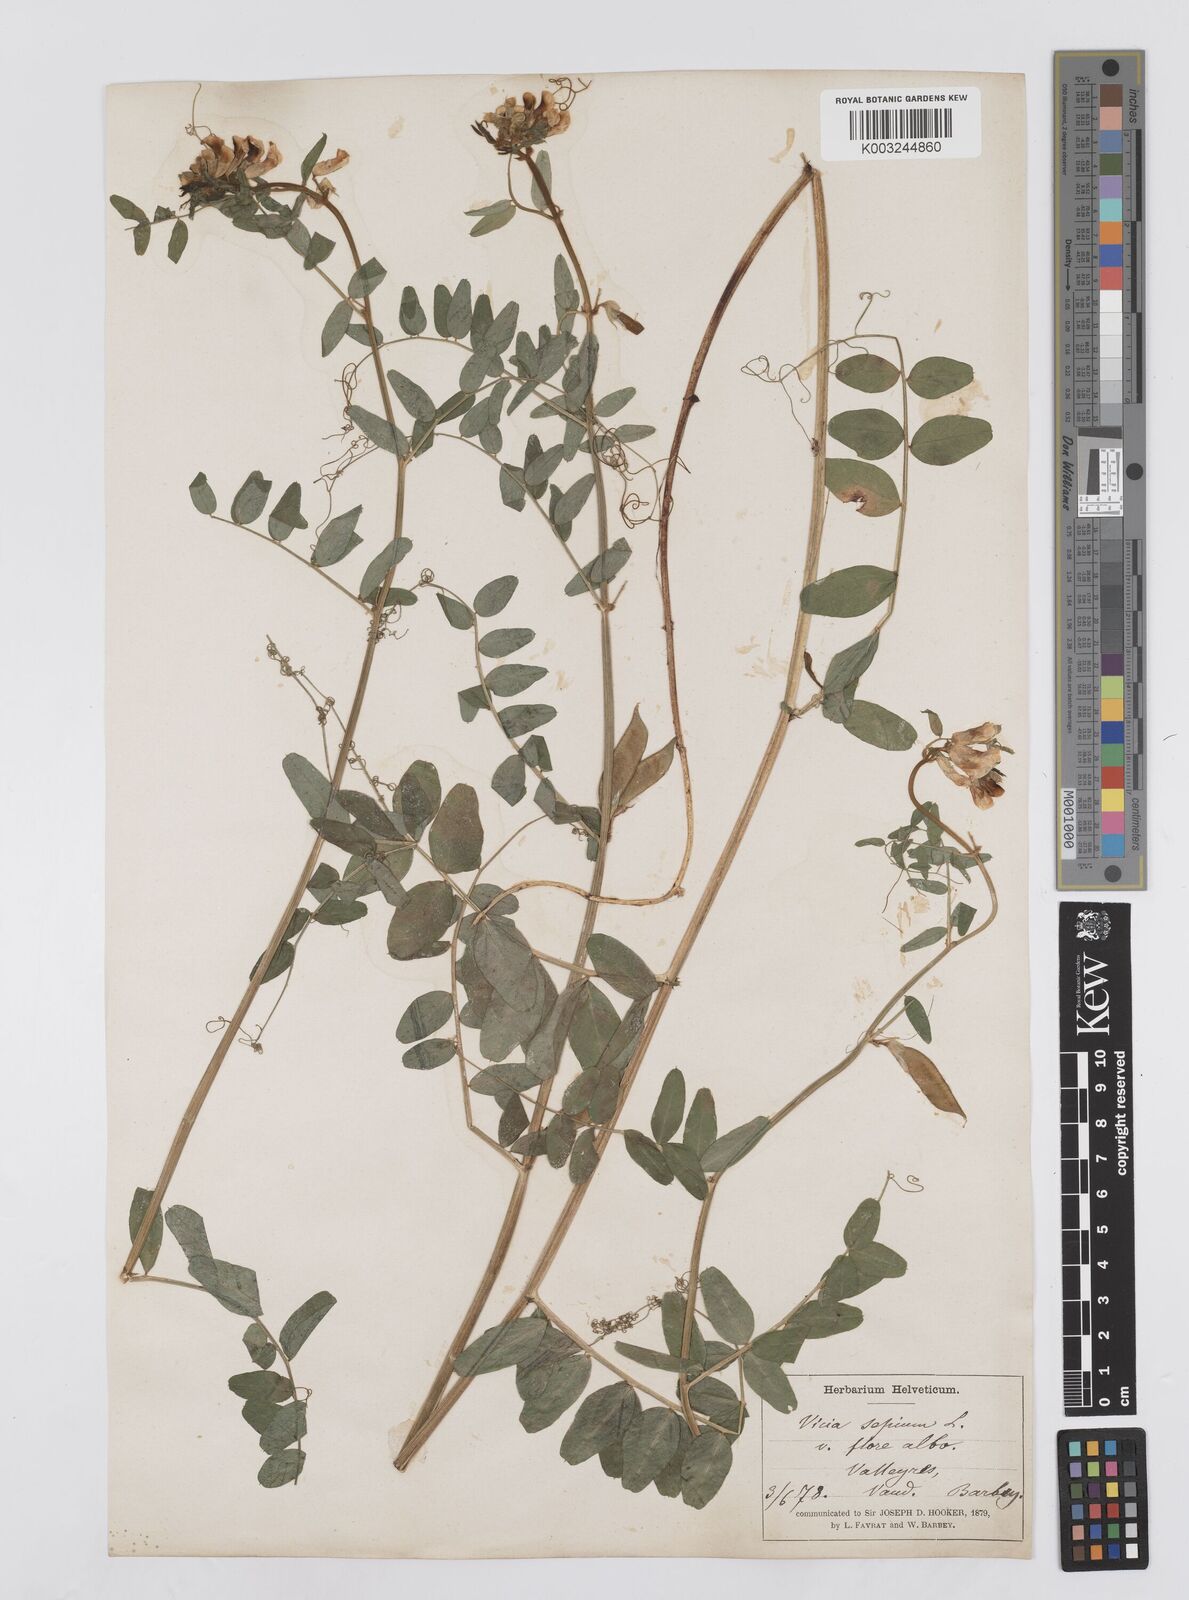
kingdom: Plantae
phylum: Tracheophyta
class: Magnoliopsida
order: Fabales
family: Fabaceae
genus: Vicia
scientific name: Vicia sepium
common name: Bush vetch
